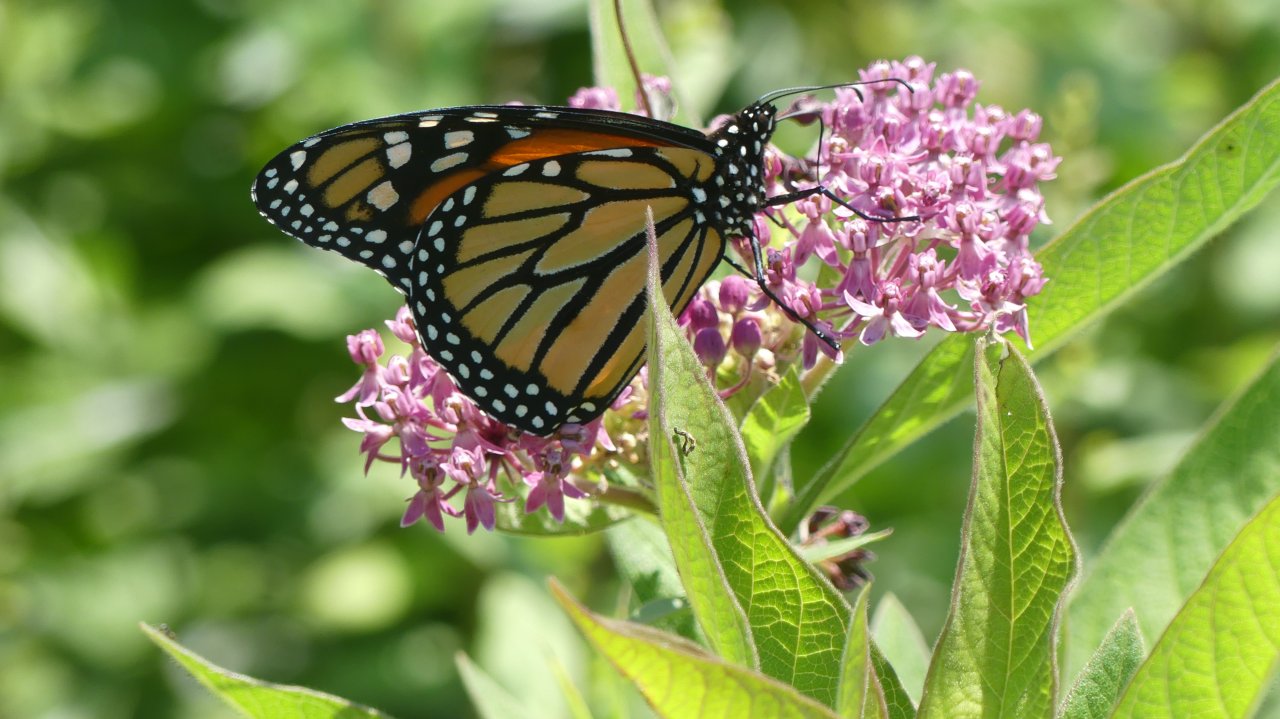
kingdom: Animalia
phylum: Arthropoda
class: Insecta
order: Lepidoptera
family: Nymphalidae
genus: Danaus
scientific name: Danaus plexippus
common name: Monarch
